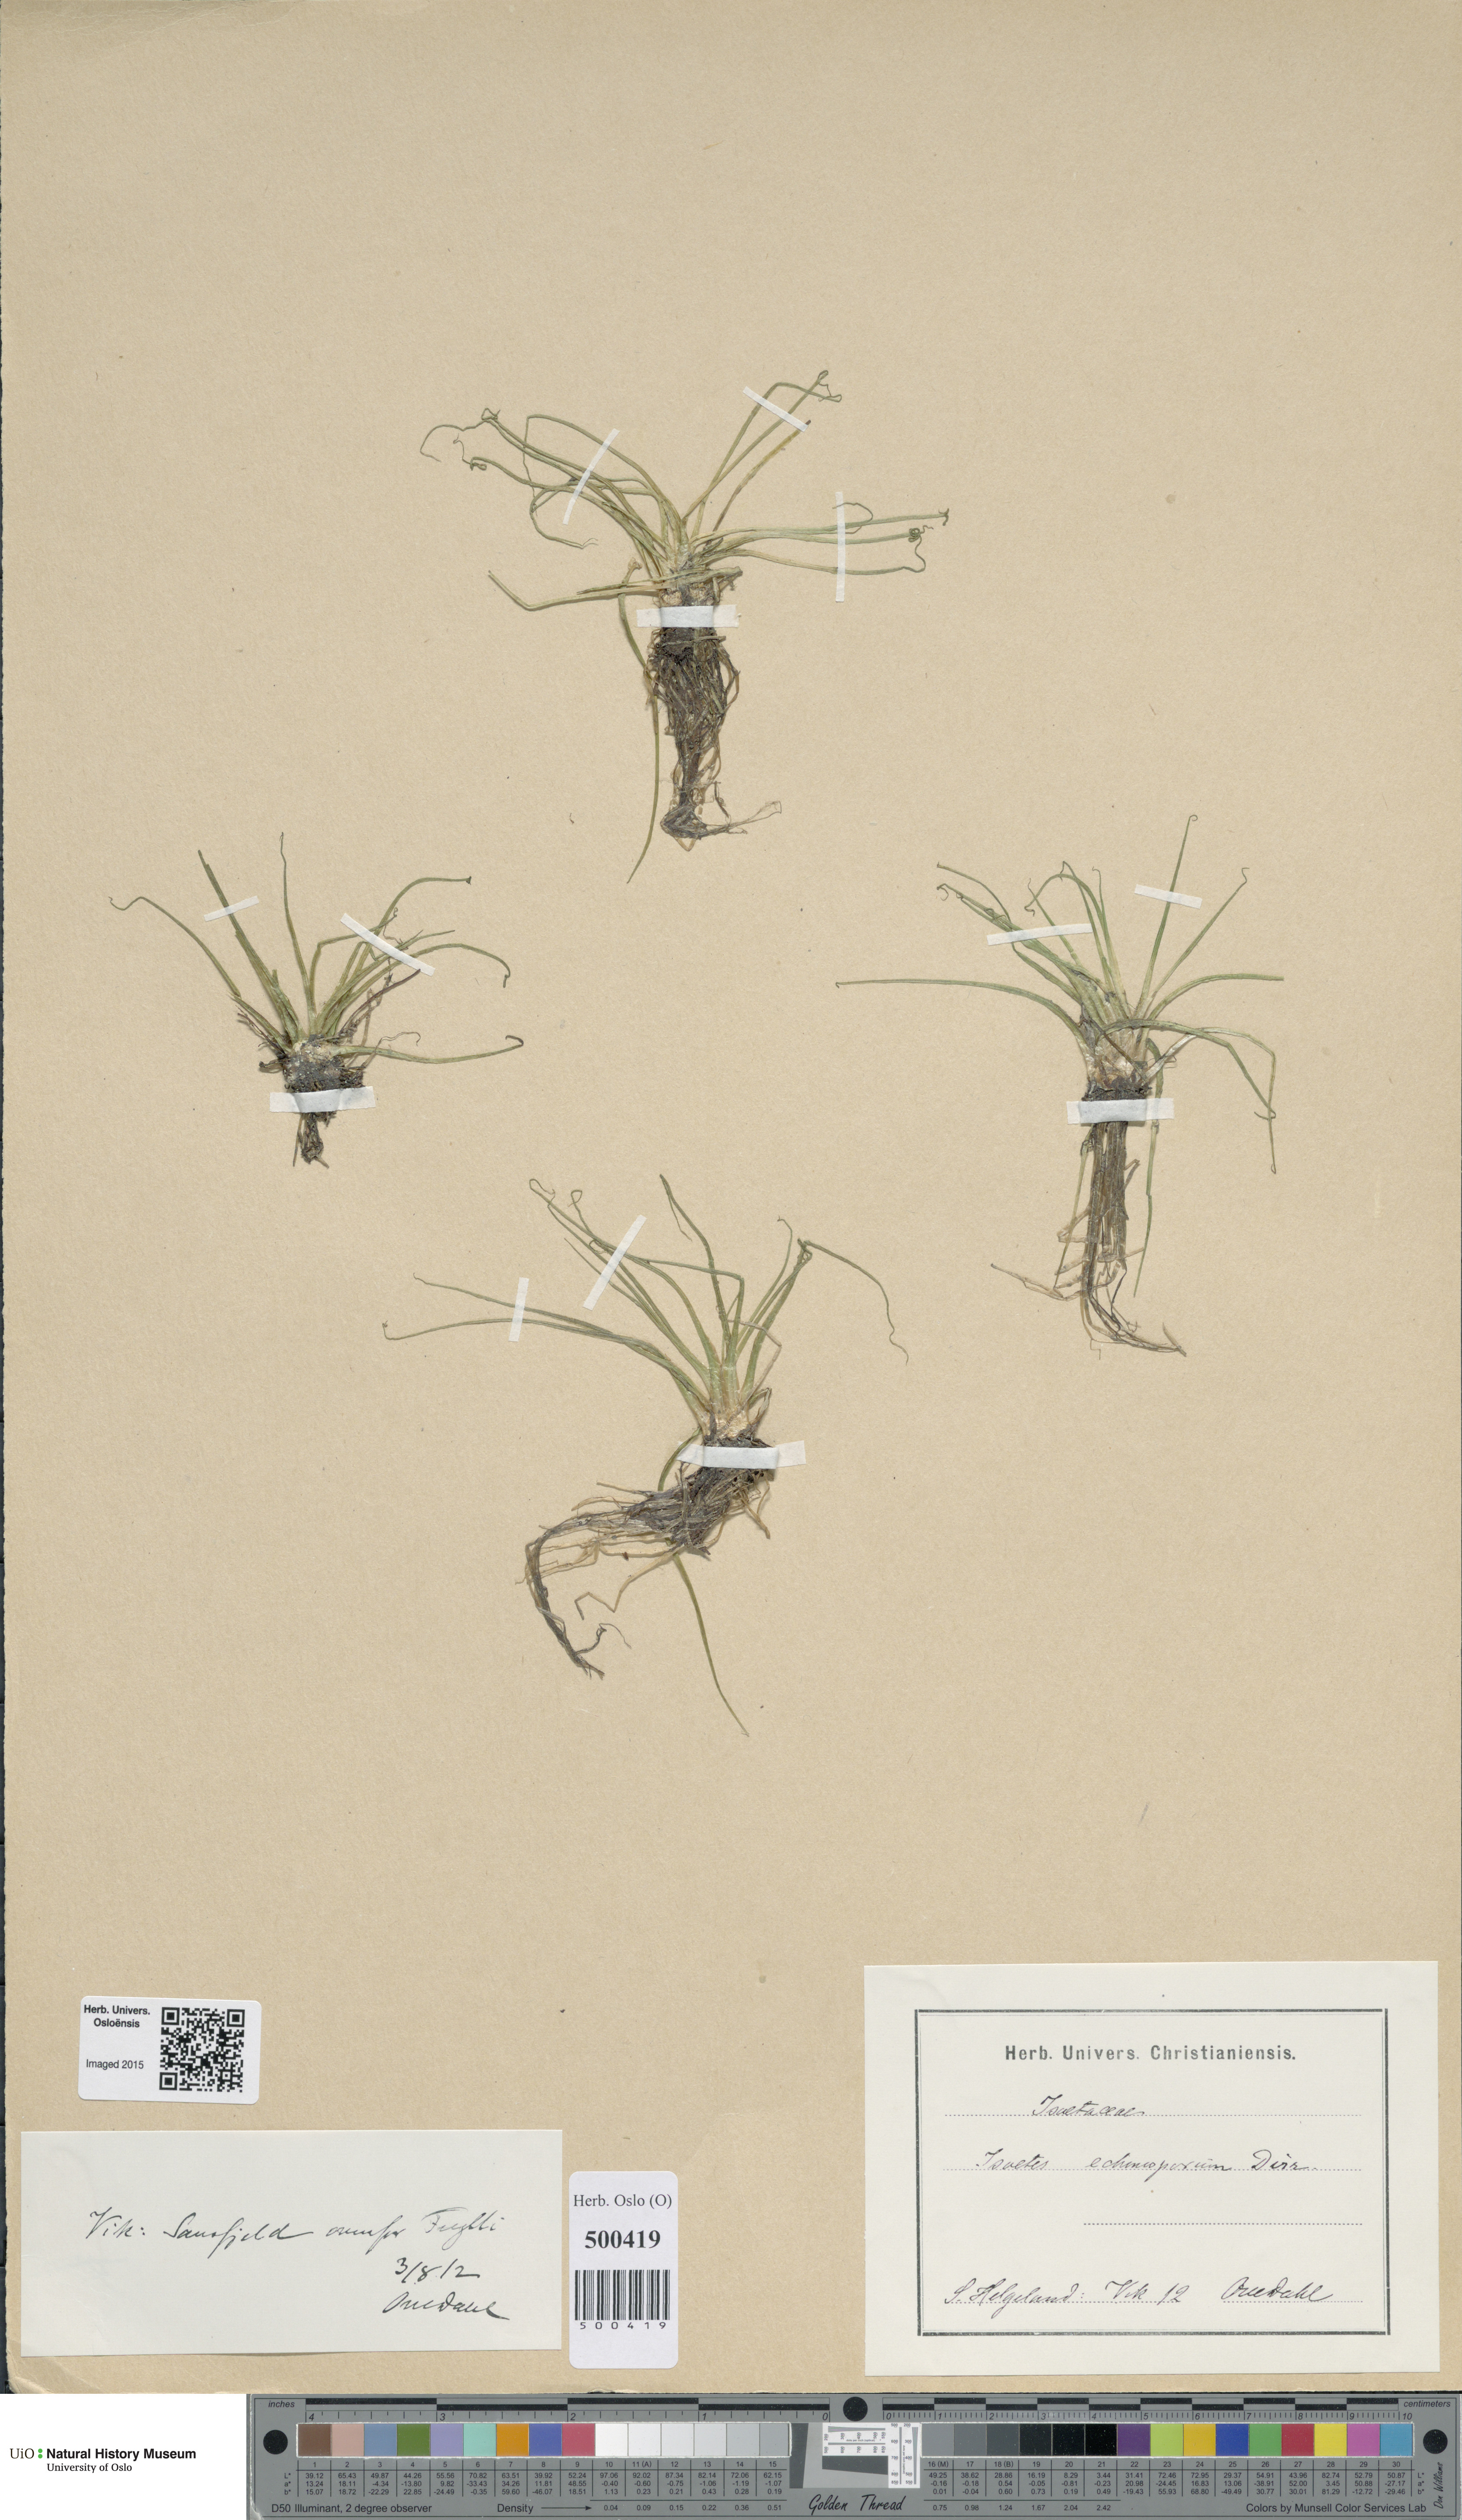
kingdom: Plantae
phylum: Tracheophyta
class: Lycopodiopsida
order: Isoetales
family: Isoetaceae
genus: Isoetes
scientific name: Isoetes echinospora
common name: Spring quillwort
